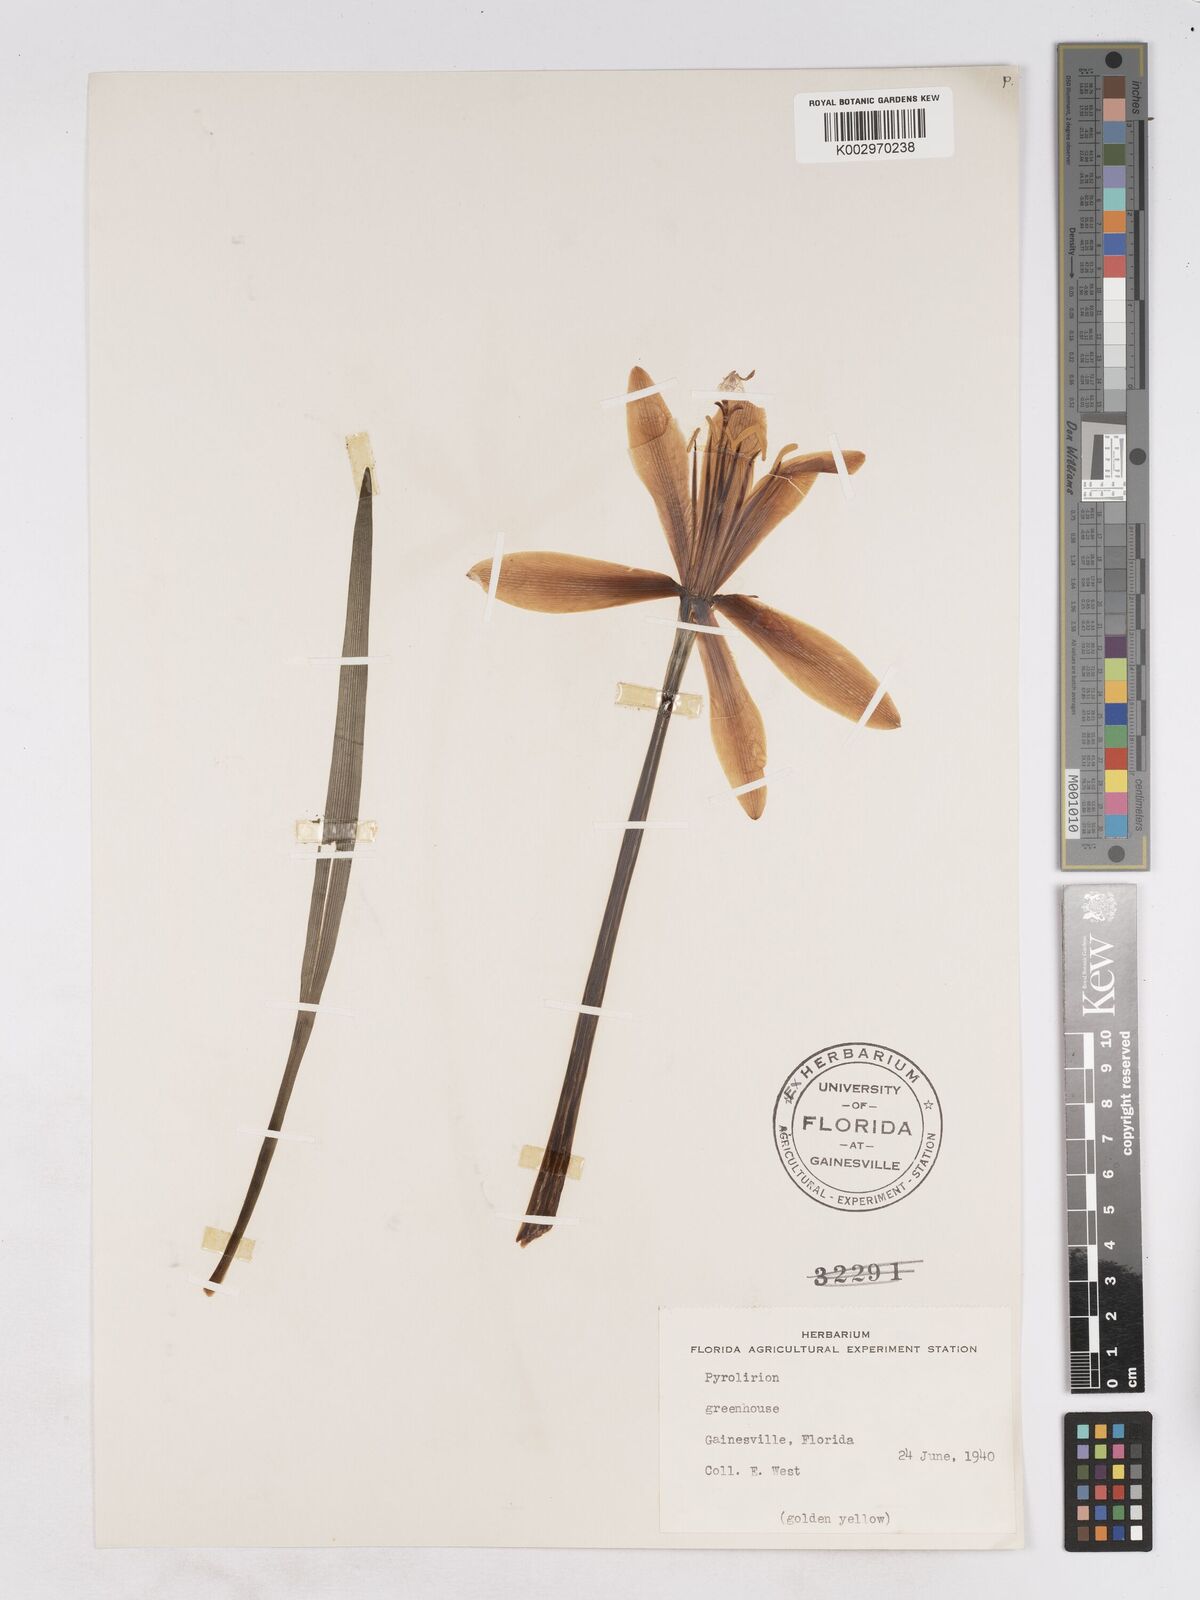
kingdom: Plantae
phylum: Tracheophyta
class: Liliopsida
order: Asparagales
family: Amaryllidaceae
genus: Pyrolirion
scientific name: Pyrolirion tubiflorum
